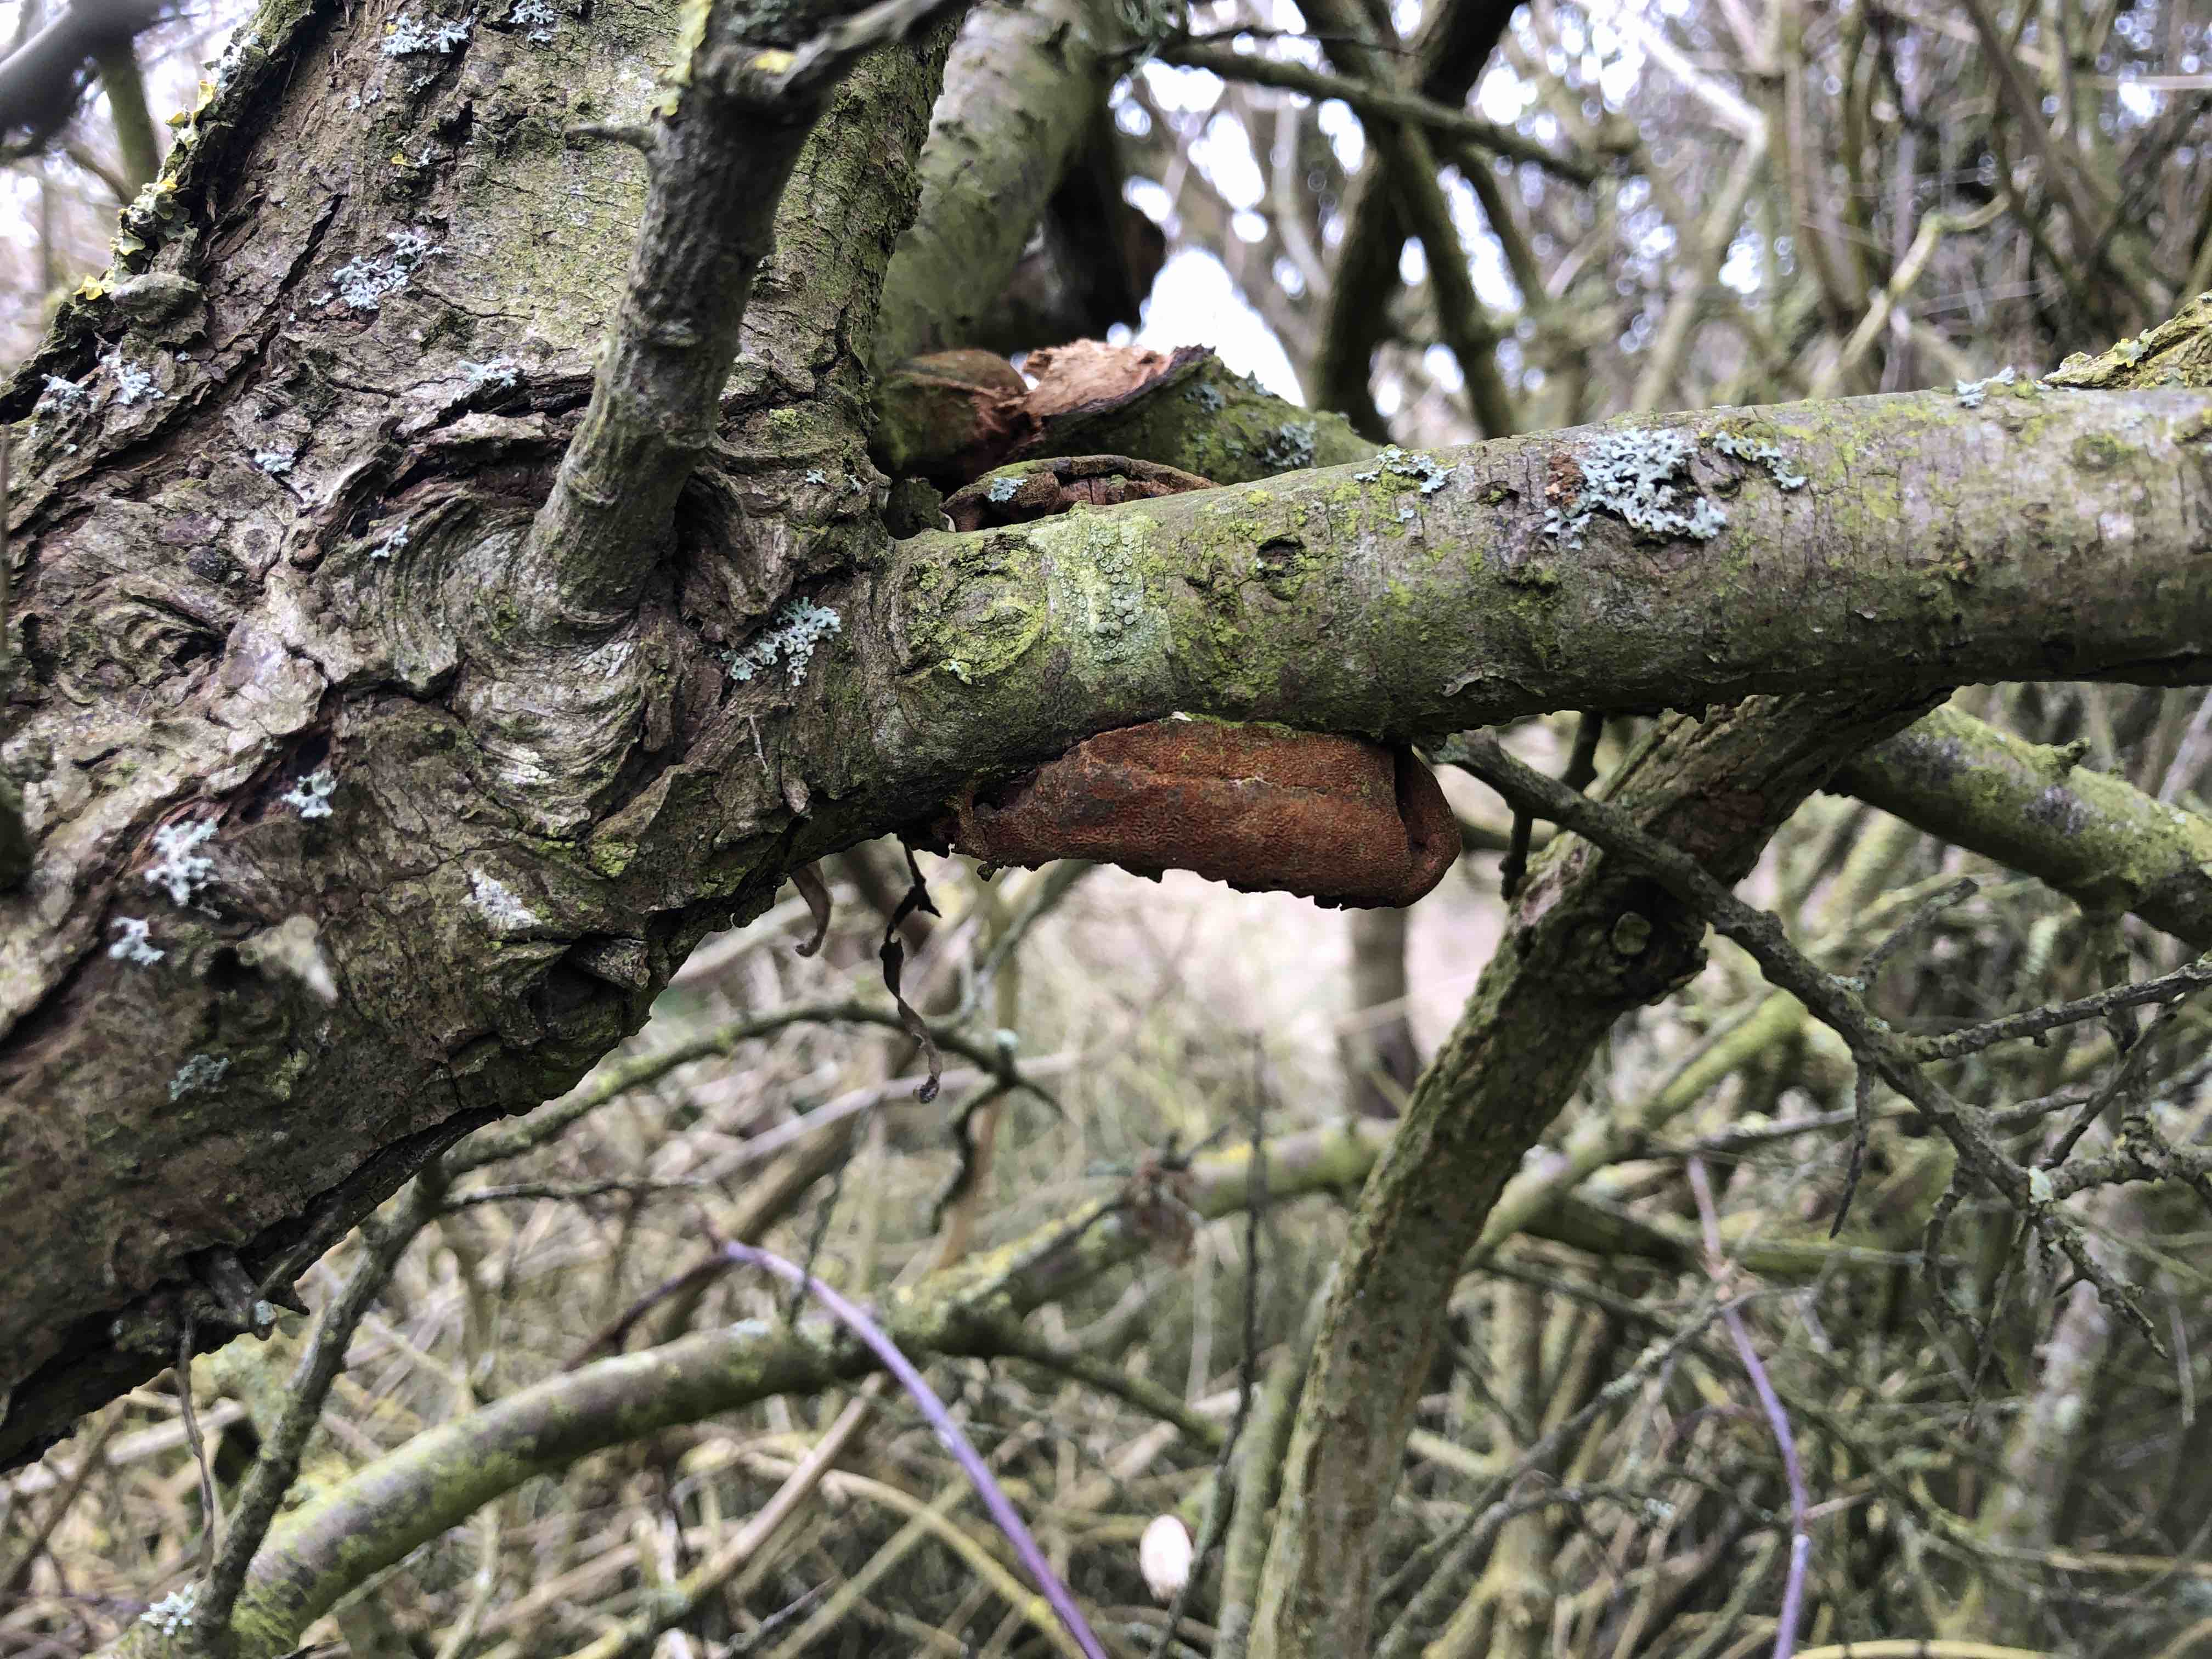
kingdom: Fungi
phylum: Basidiomycota
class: Agaricomycetes
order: Hymenochaetales
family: Hymenochaetaceae
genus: Fomitiporia
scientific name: Fomitiporia hippophaeicola
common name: havtorn-ildporesvamp
